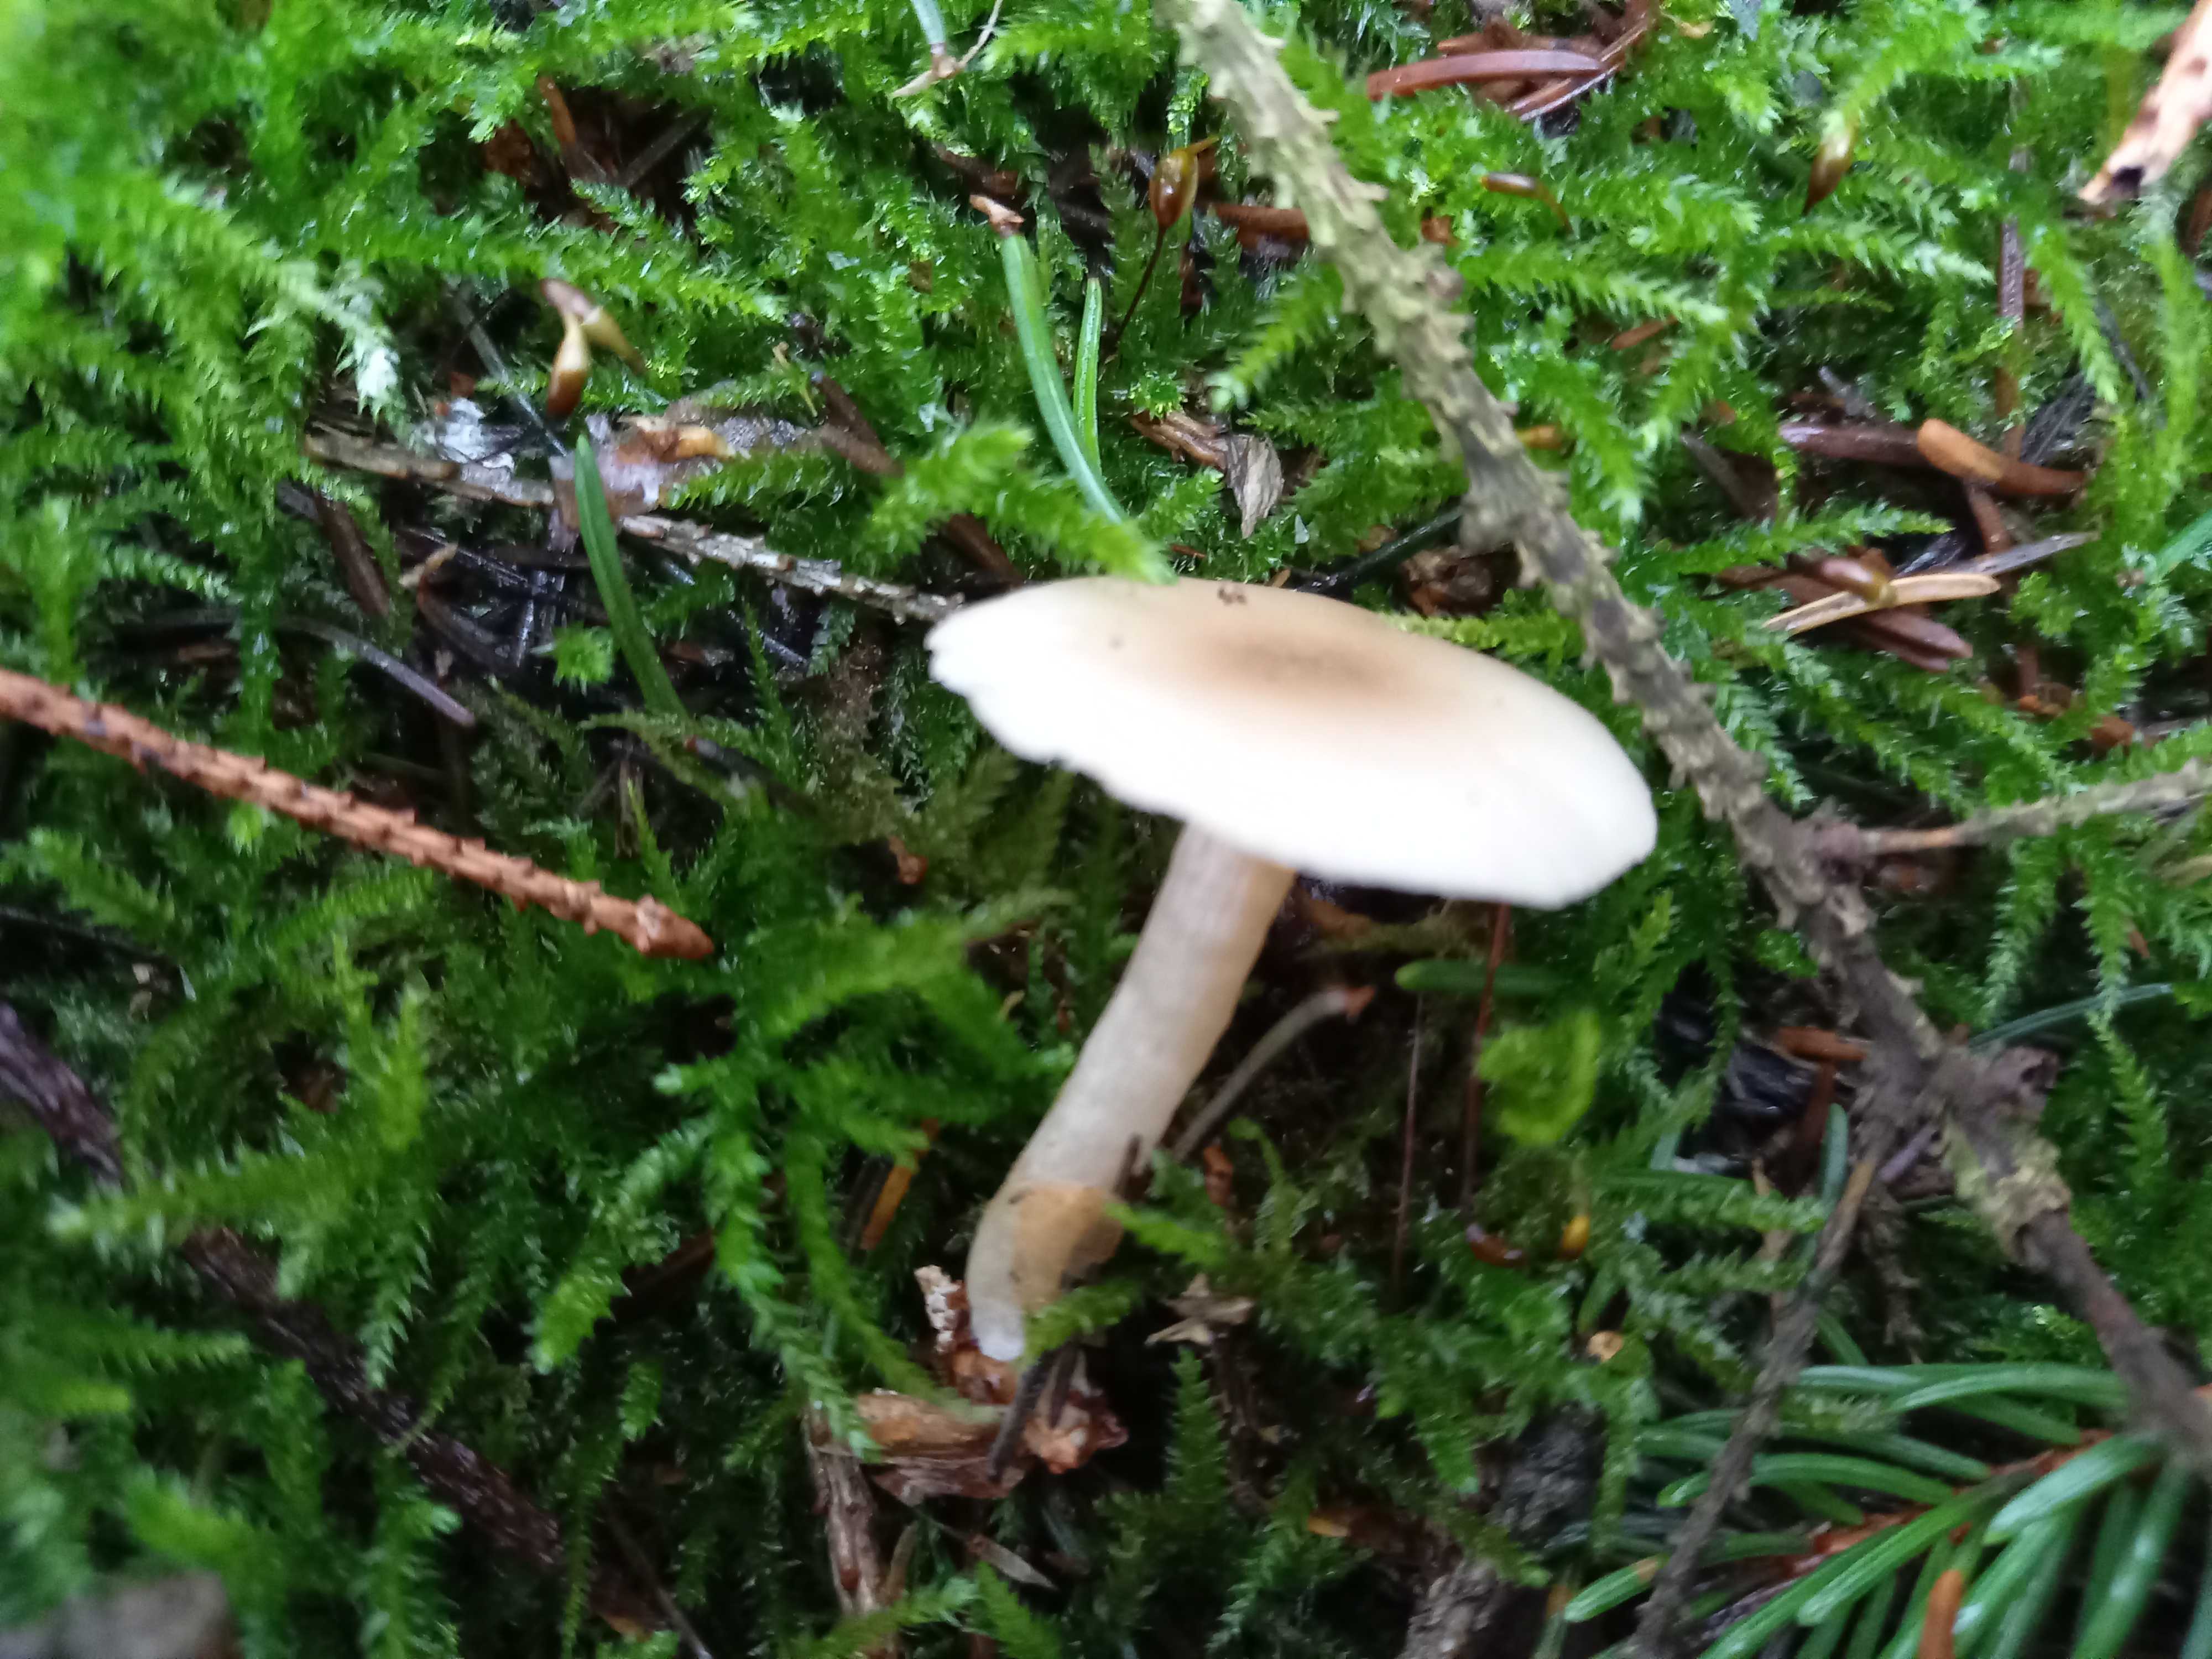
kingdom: Fungi
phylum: Basidiomycota
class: Agaricomycetes
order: Agaricales
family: Tricholomataceae
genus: Clitocybe
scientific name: Clitocybe fragrans
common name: vellugtende tragthat
